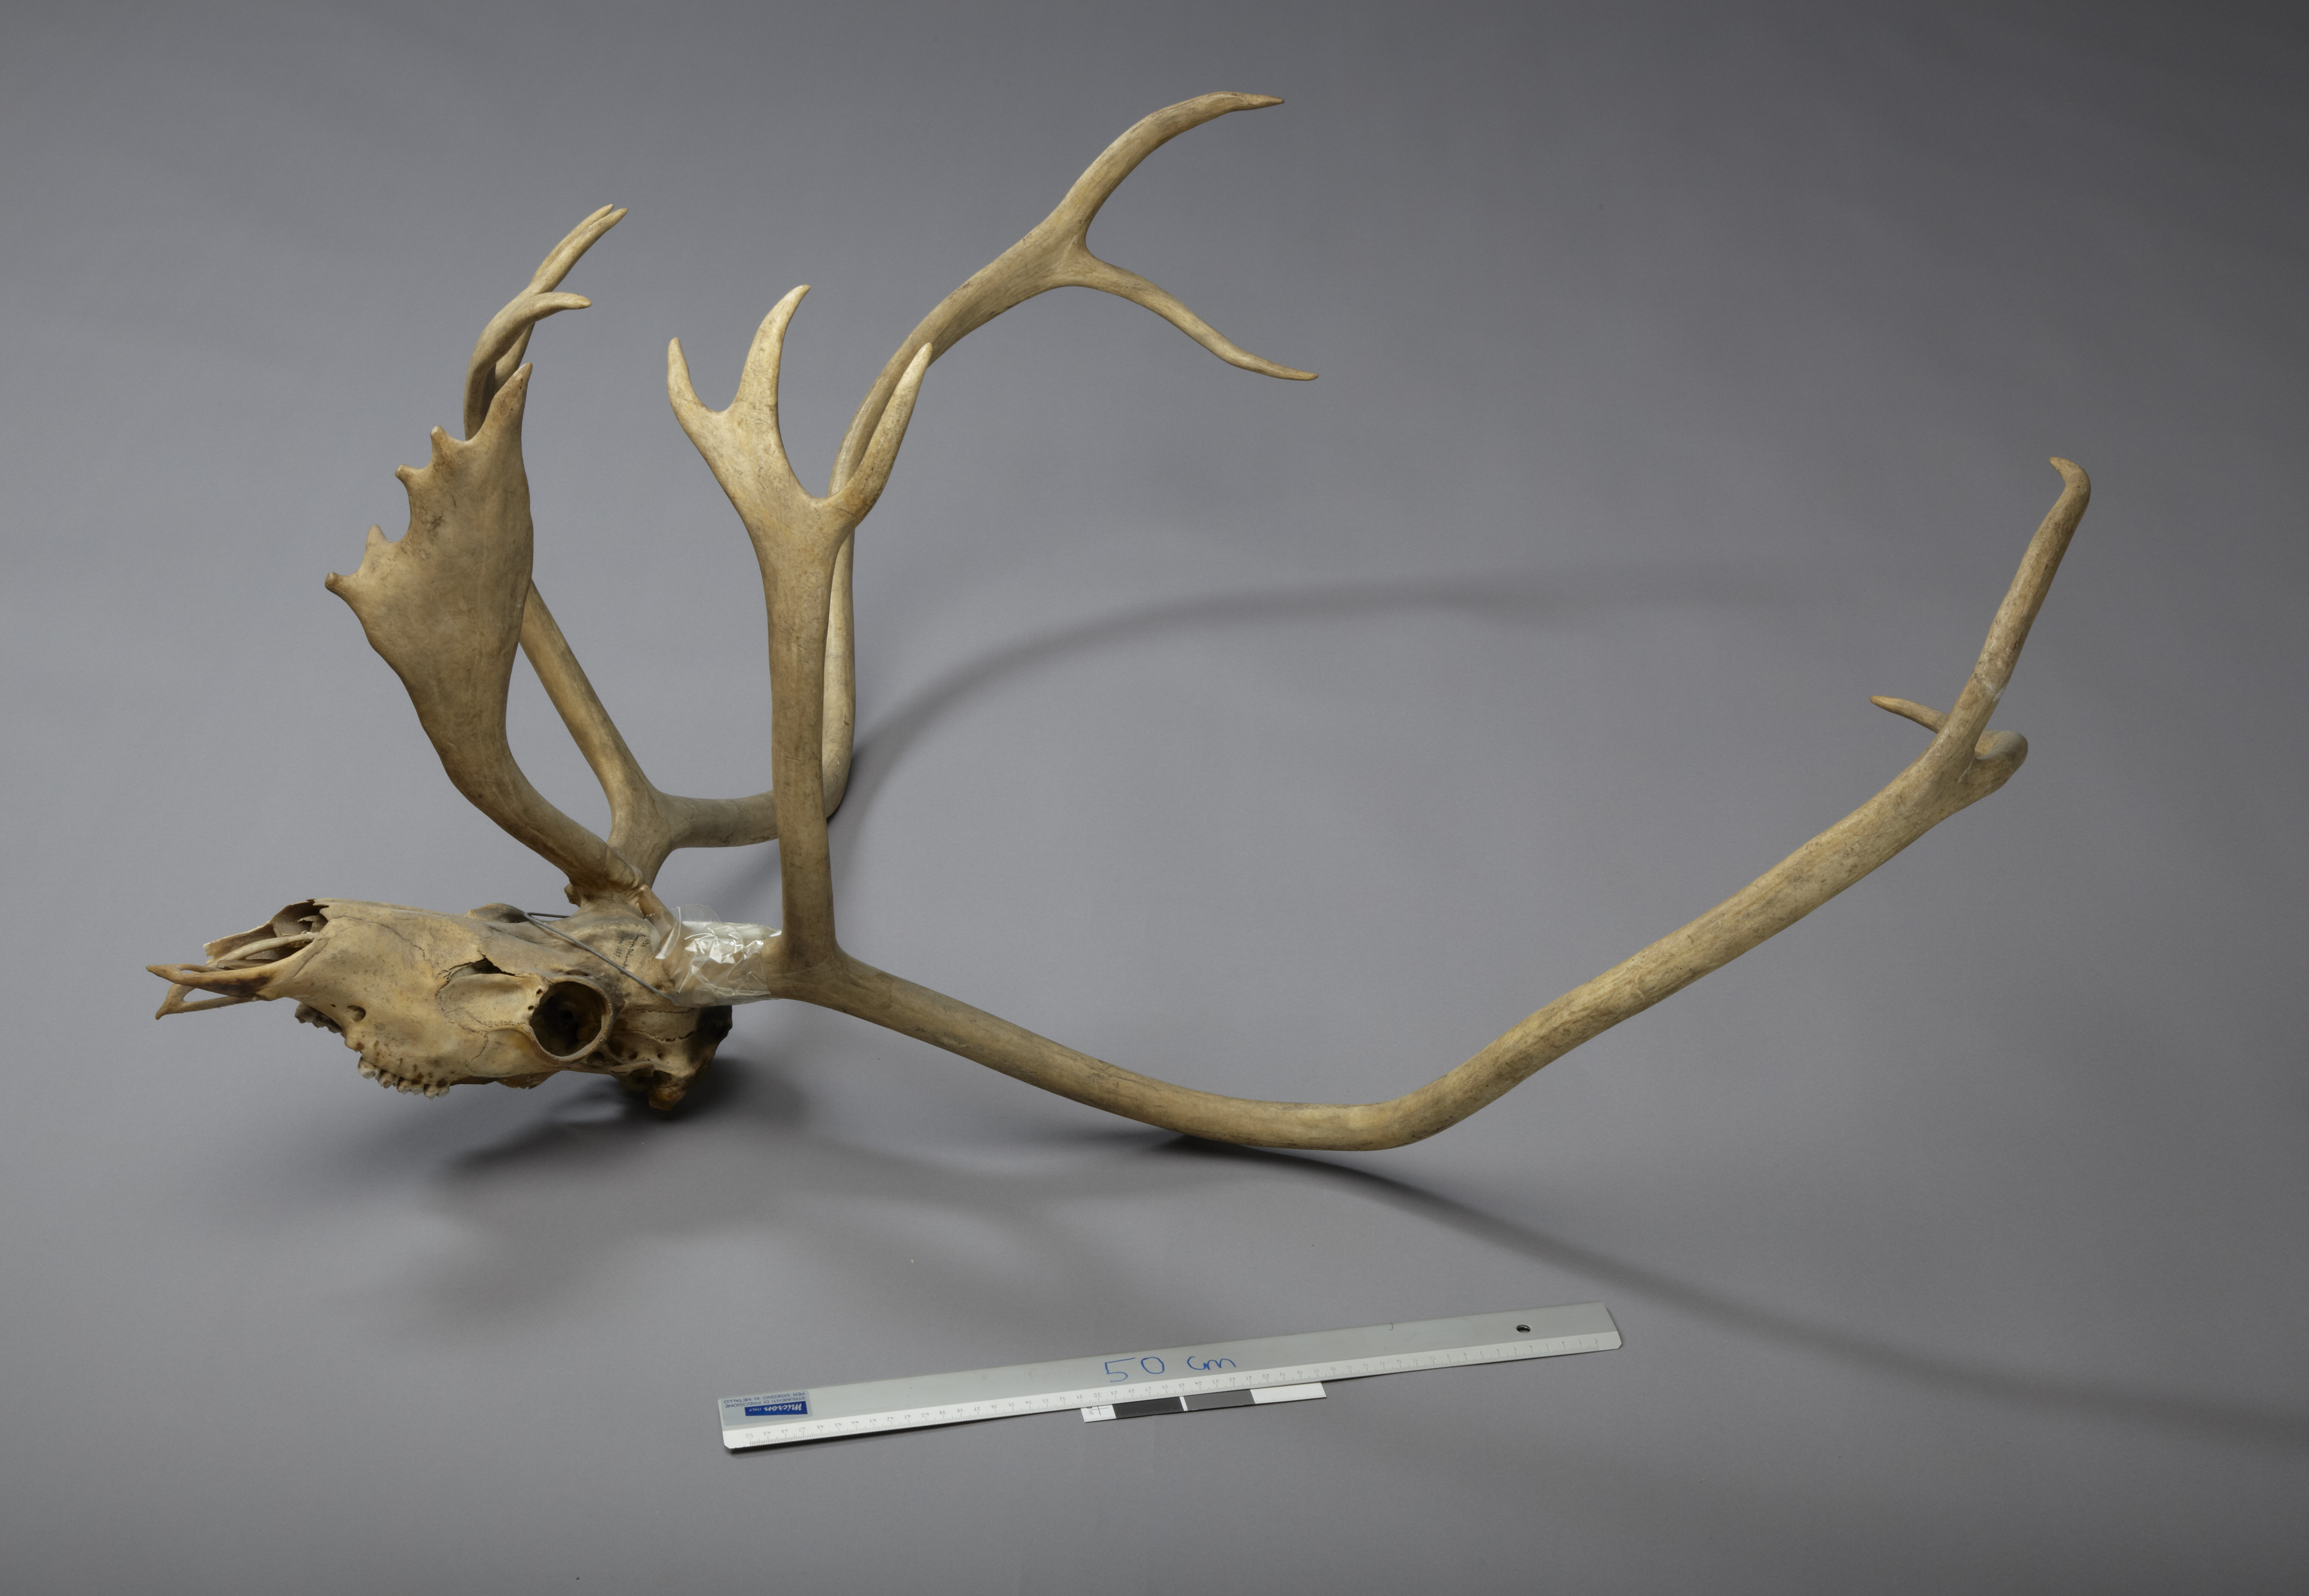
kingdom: Animalia
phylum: Chordata
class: Mammalia
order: Artiodactyla
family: Cervidae
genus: Rangifer
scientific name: Rangifer tarandus
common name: Reindeer
